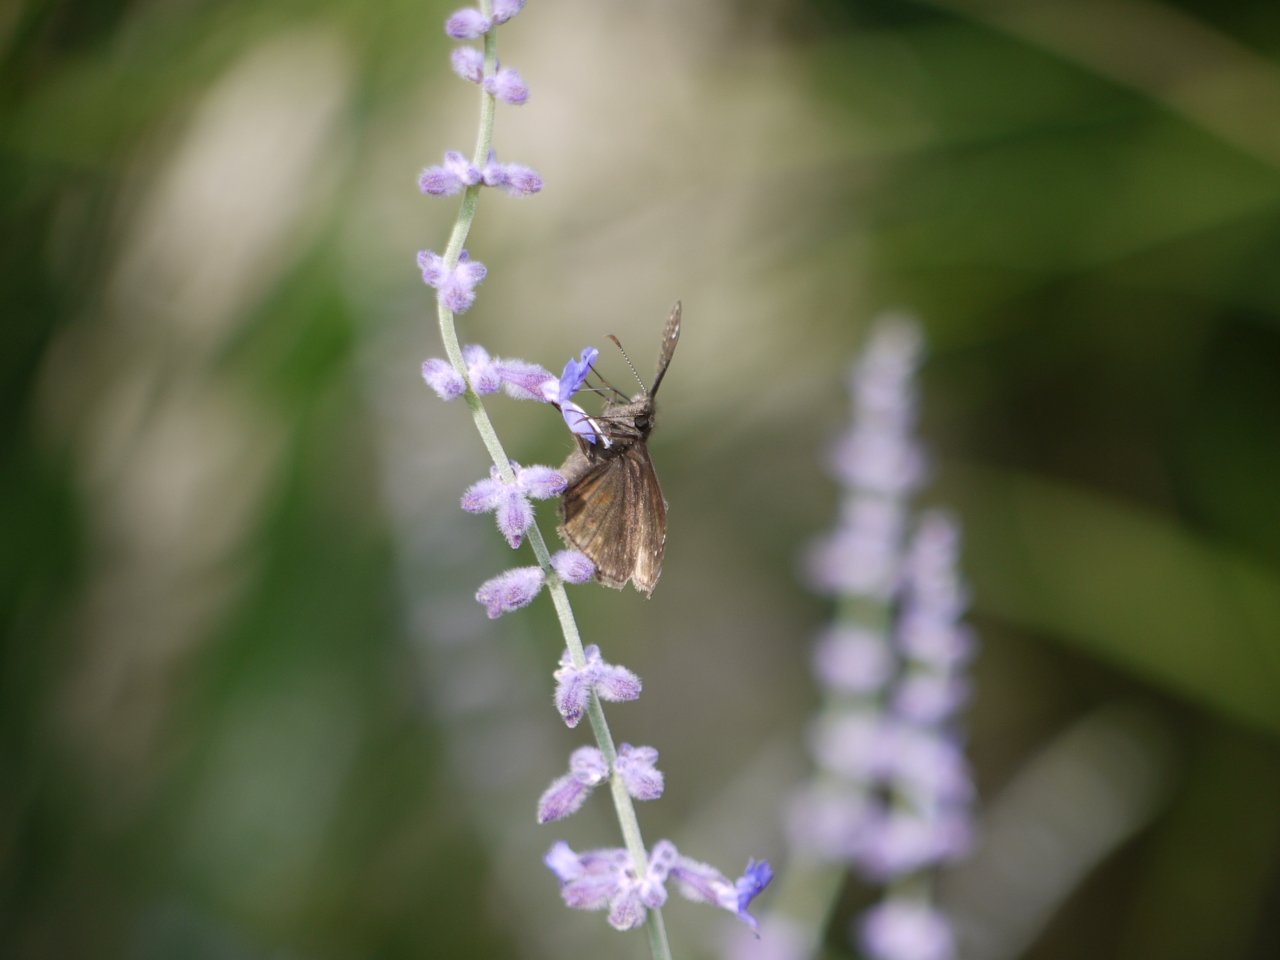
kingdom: Animalia
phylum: Arthropoda
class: Insecta
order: Lepidoptera
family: Hesperiidae
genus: Gesta
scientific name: Gesta
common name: Wild Indigo Duskywing
